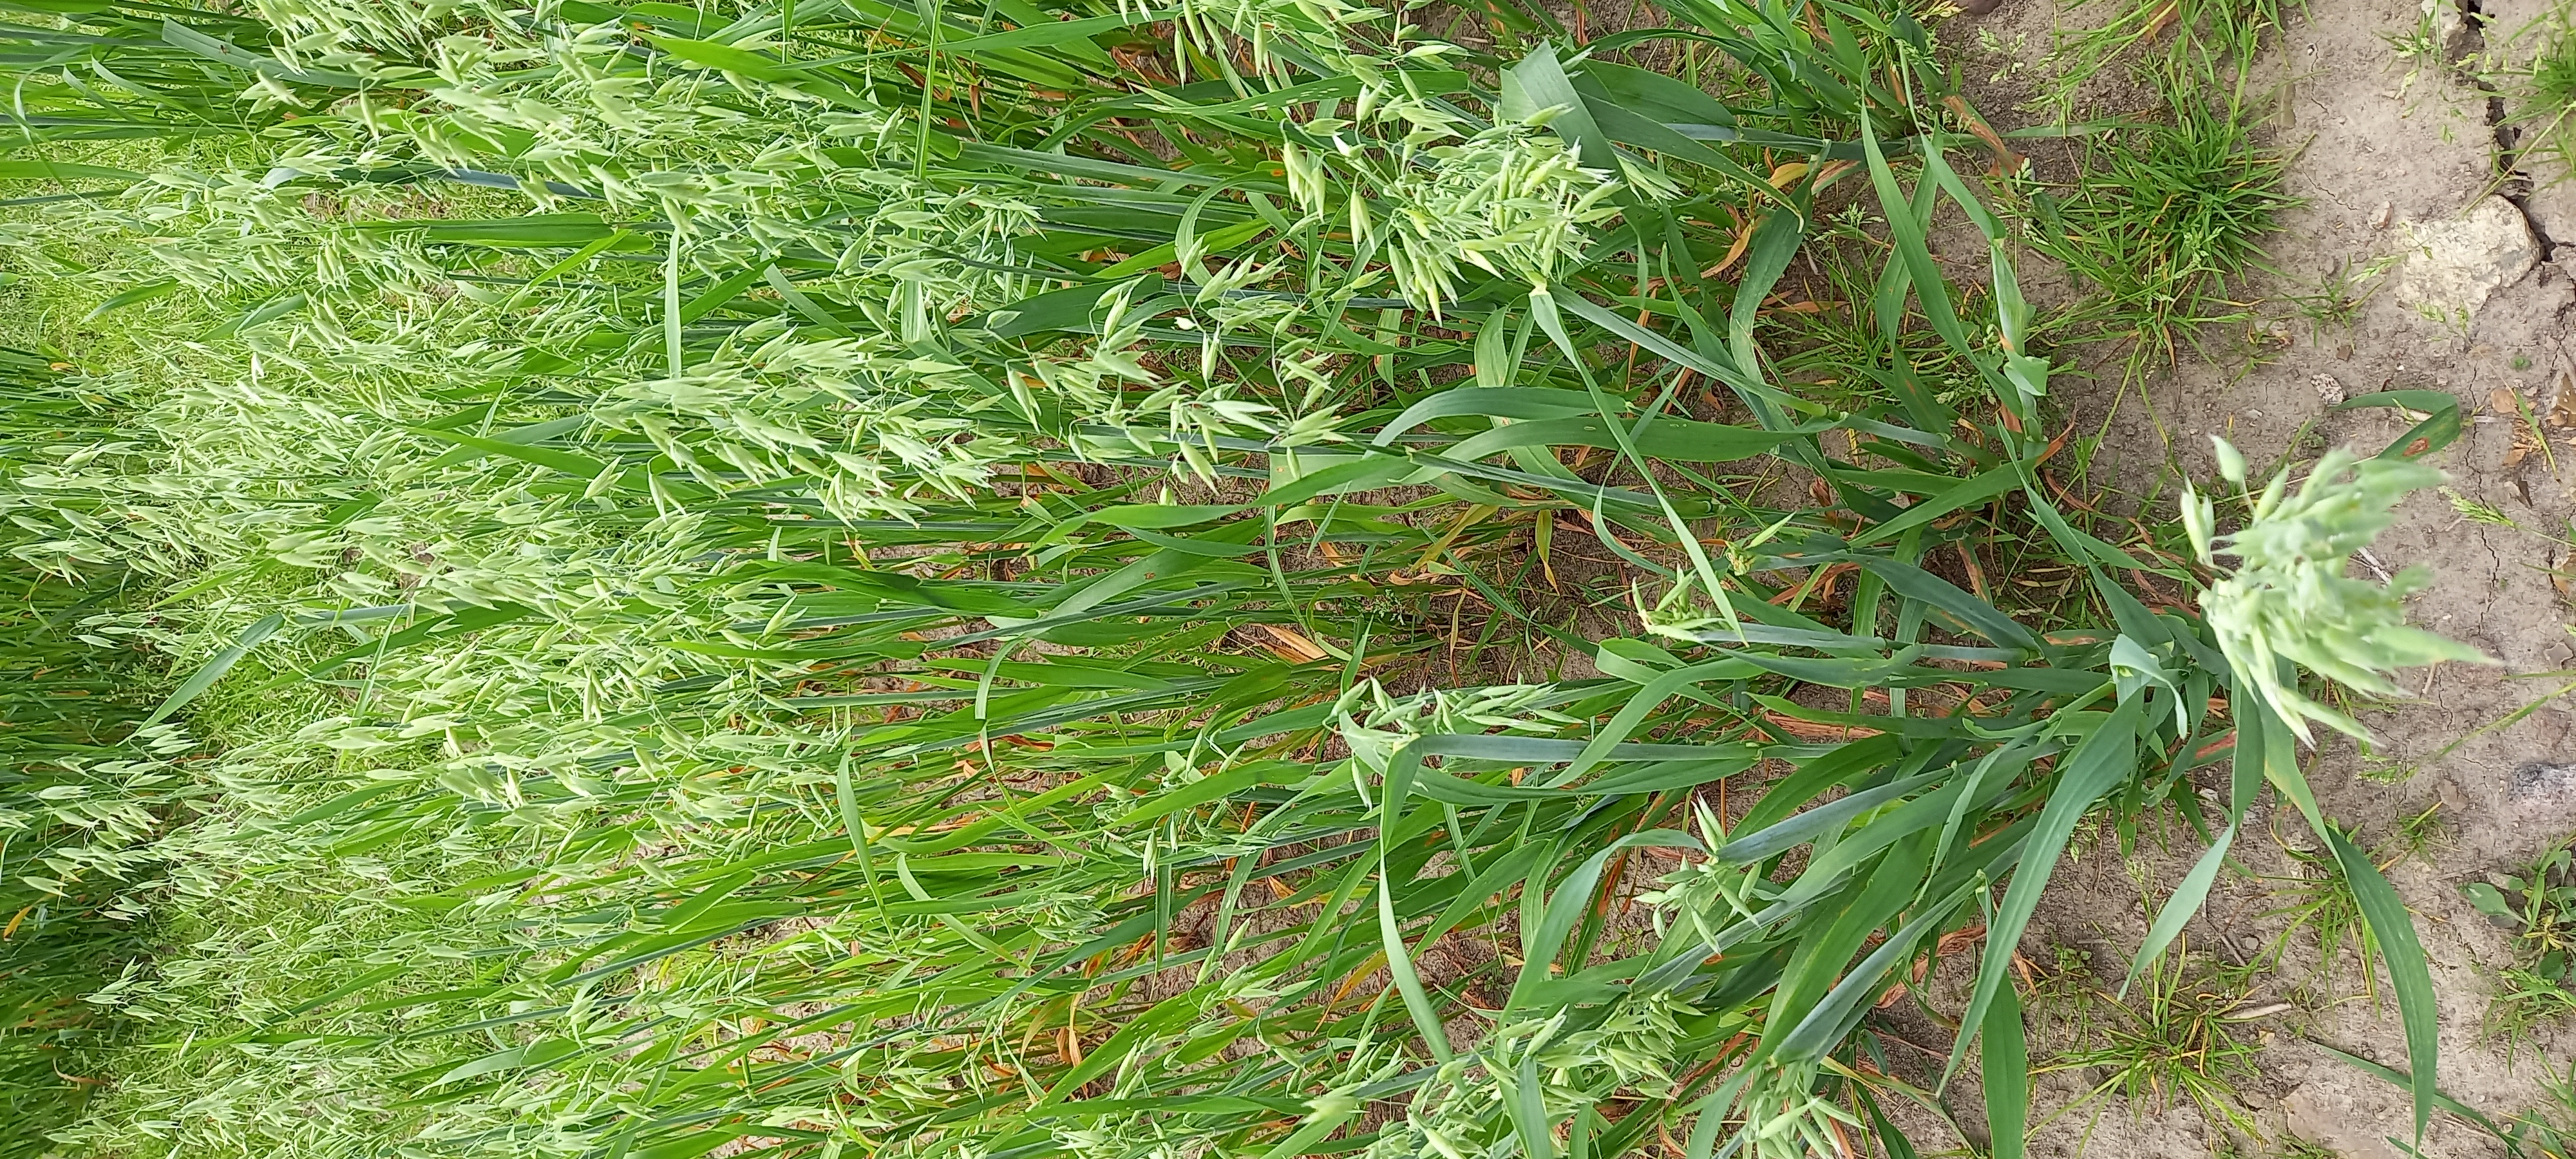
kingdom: Plantae
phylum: Tracheophyta
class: Liliopsida
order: Poales
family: Poaceae
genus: Avena
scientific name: Avena sativa
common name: Oat
